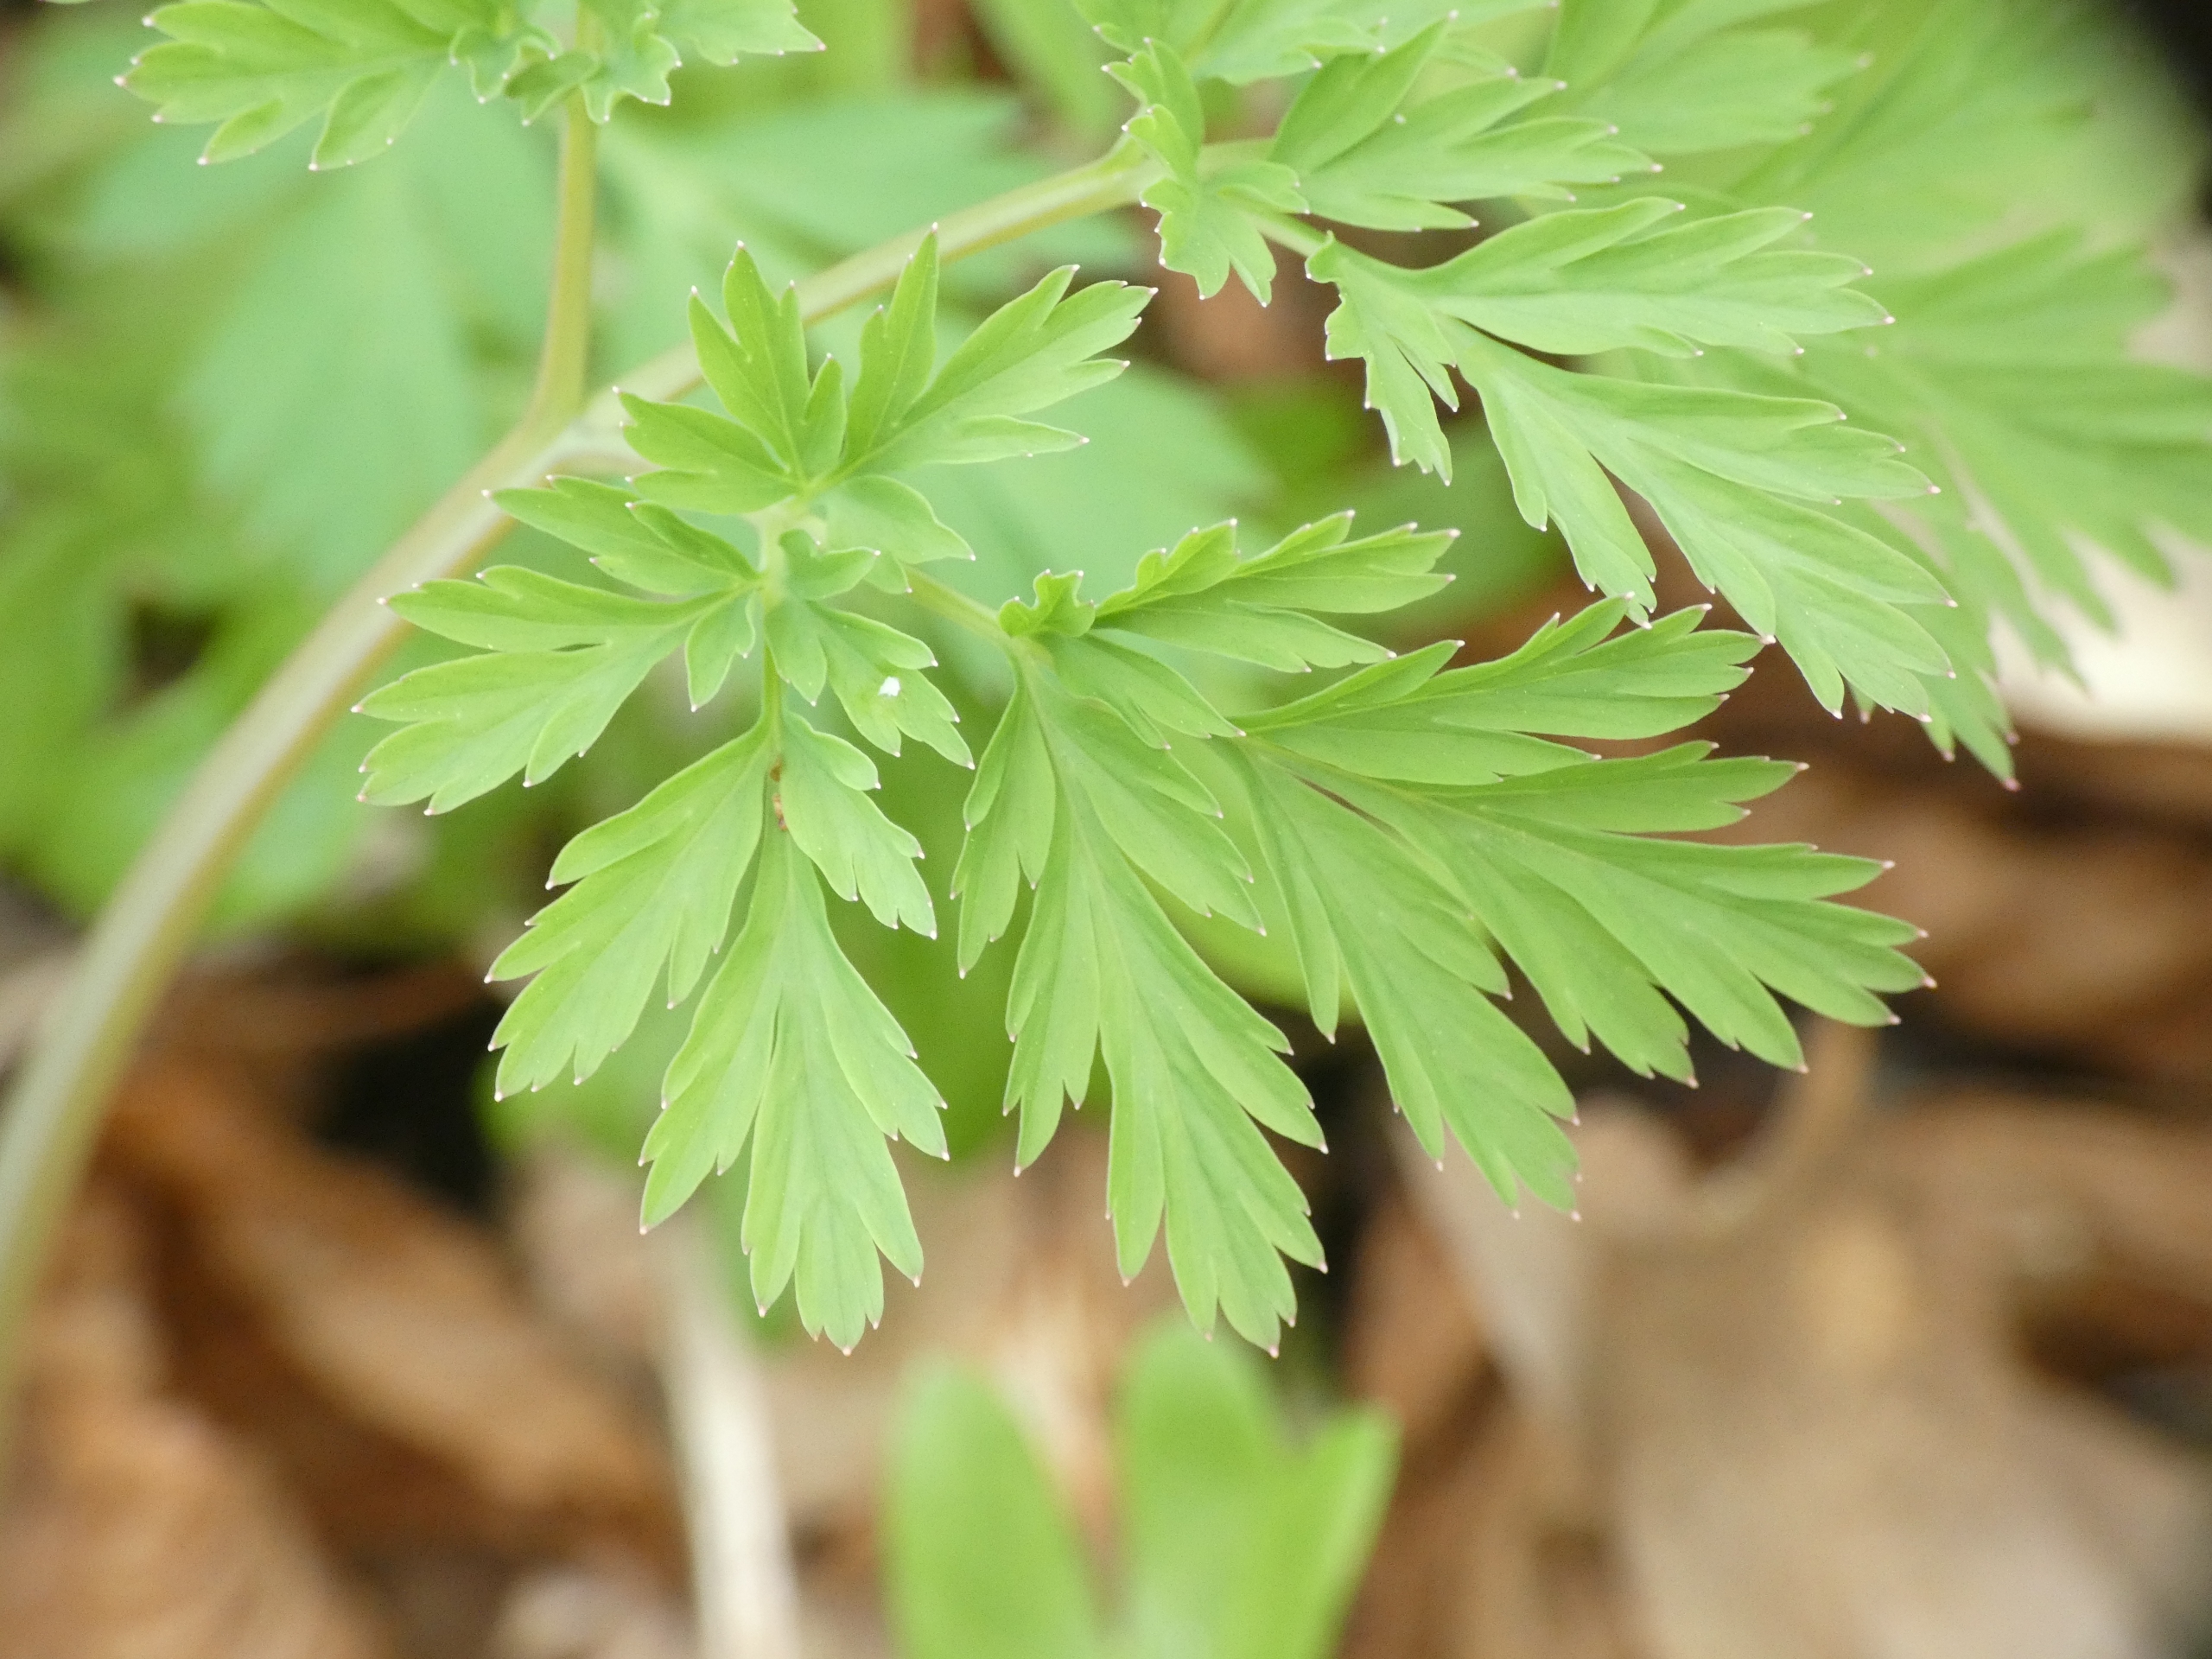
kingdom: Plantae
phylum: Tracheophyta
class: Magnoliopsida
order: Ranunculales
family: Papaveraceae
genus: Dicentra
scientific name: Dicentra formosa
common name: Småhjerte
